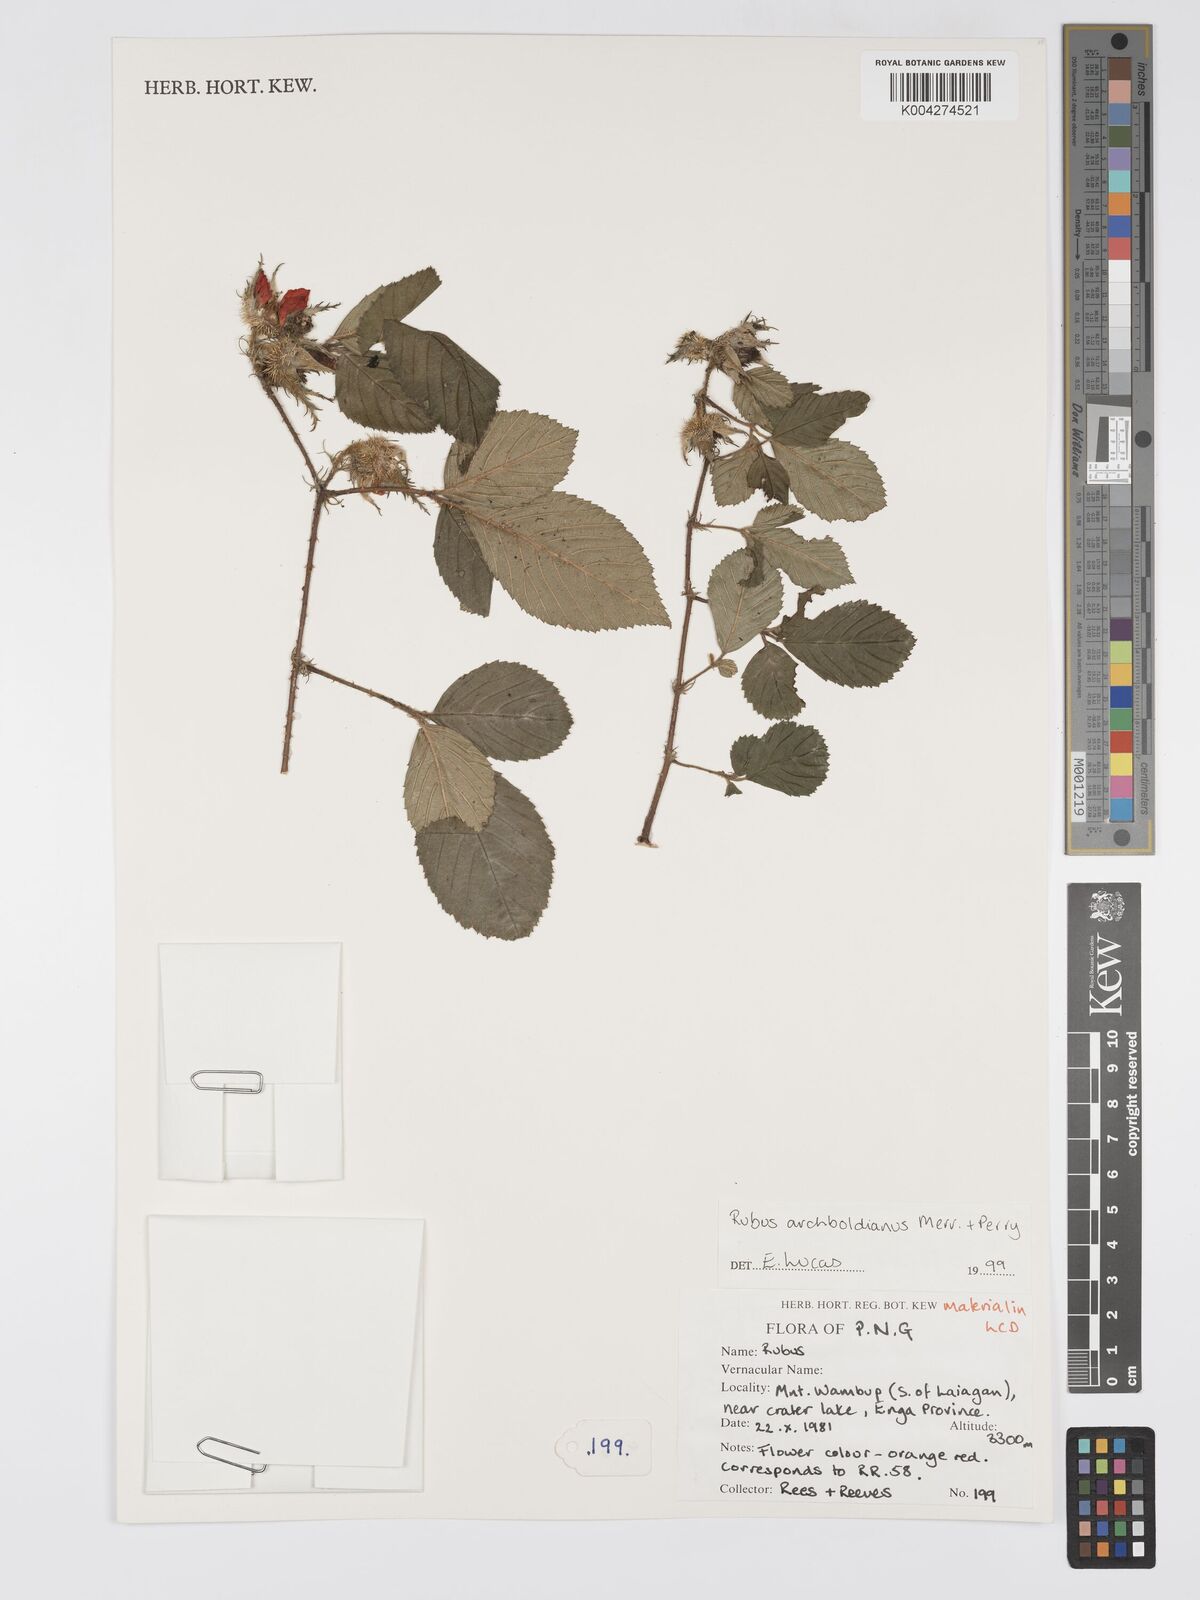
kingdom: Plantae
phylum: Tracheophyta
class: Magnoliopsida
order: Rosales
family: Rosaceae
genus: Rubus
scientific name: Rubus archboldianus
